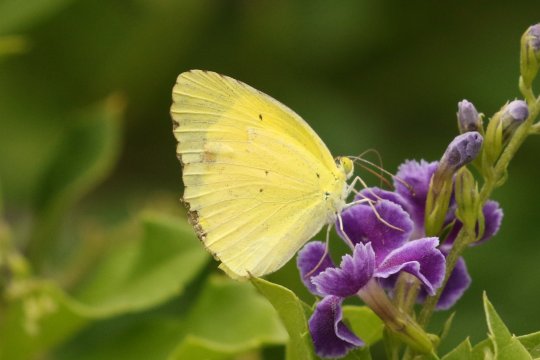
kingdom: Animalia
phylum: Arthropoda
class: Insecta
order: Lepidoptera
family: Pieridae
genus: Pyrisitia
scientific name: Pyrisitia lisa
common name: Little Yellow
